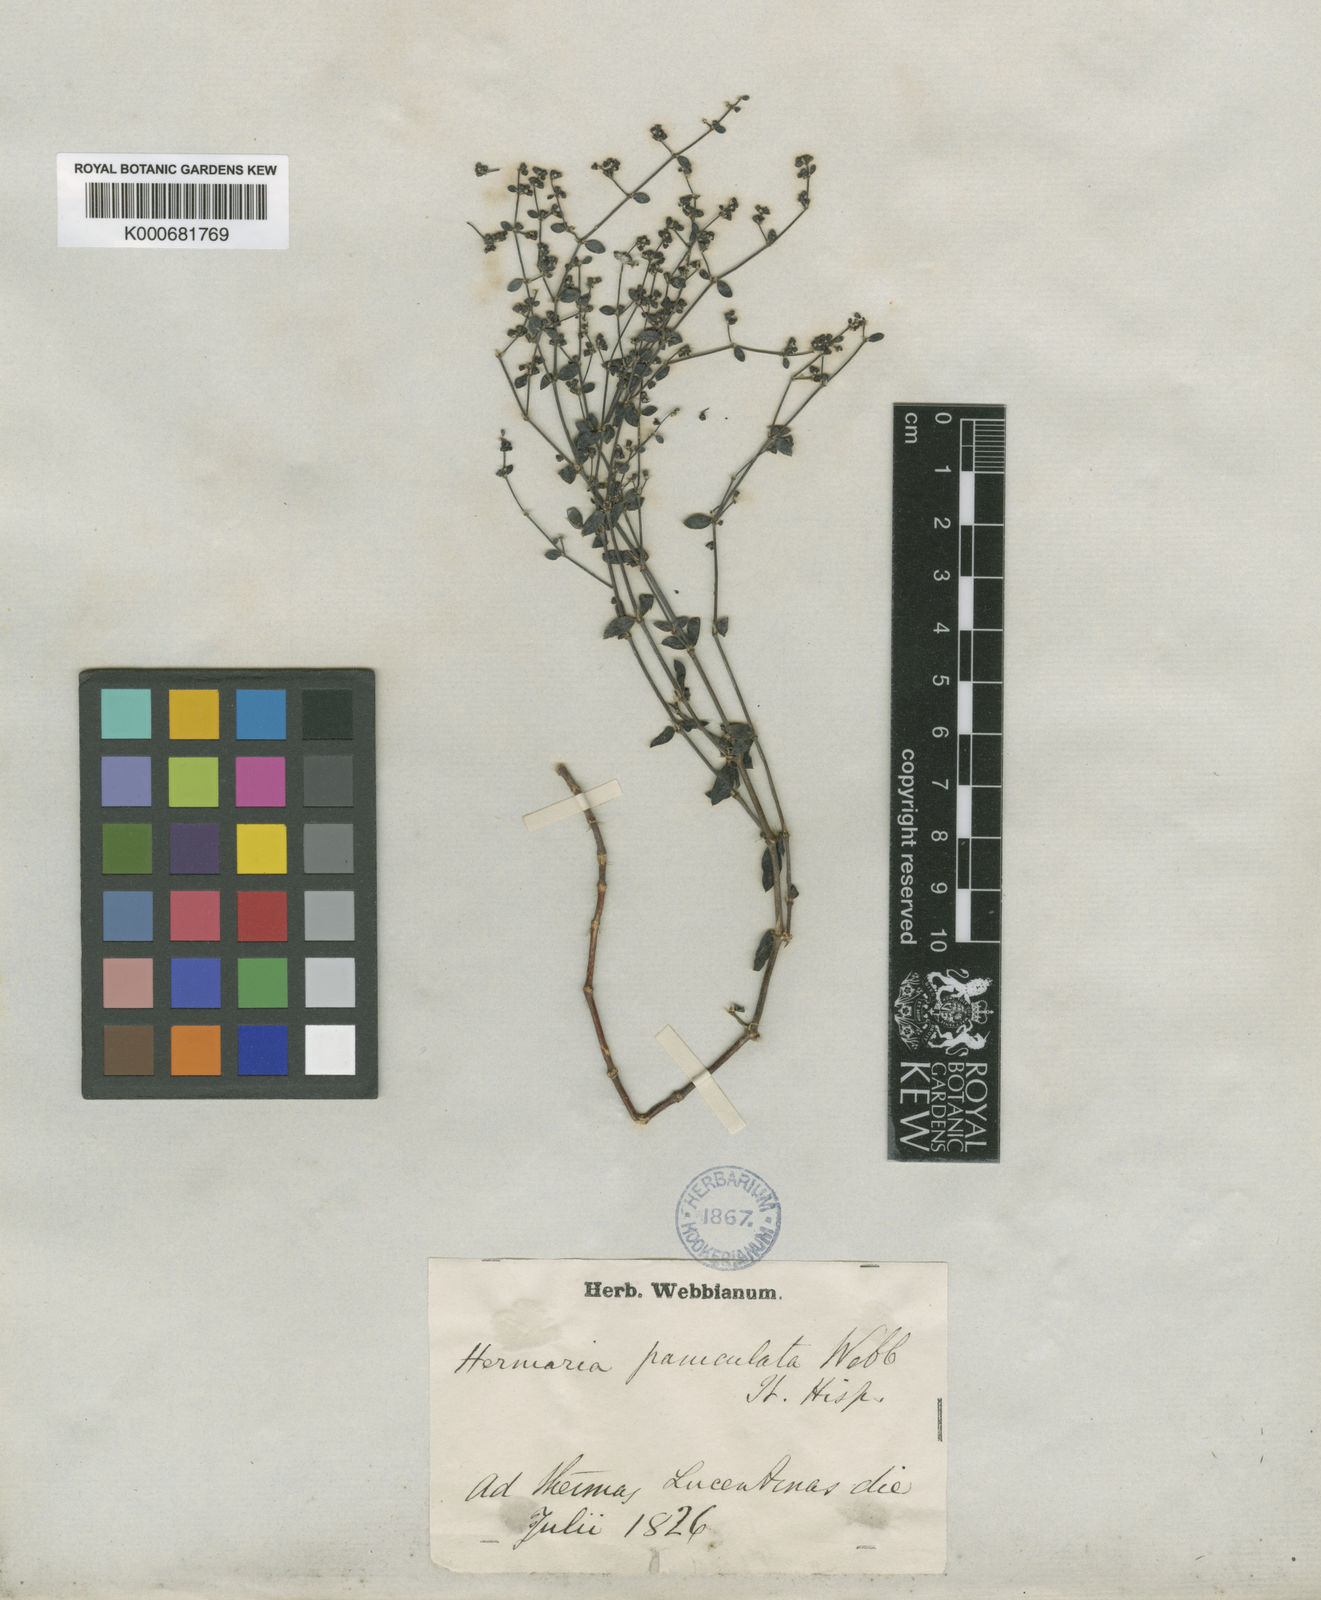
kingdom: Plantae
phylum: Tracheophyta
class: Magnoliopsida
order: Caryophyllales
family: Caryophyllaceae
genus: Paronychia
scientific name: Paronychia weberbaueri
